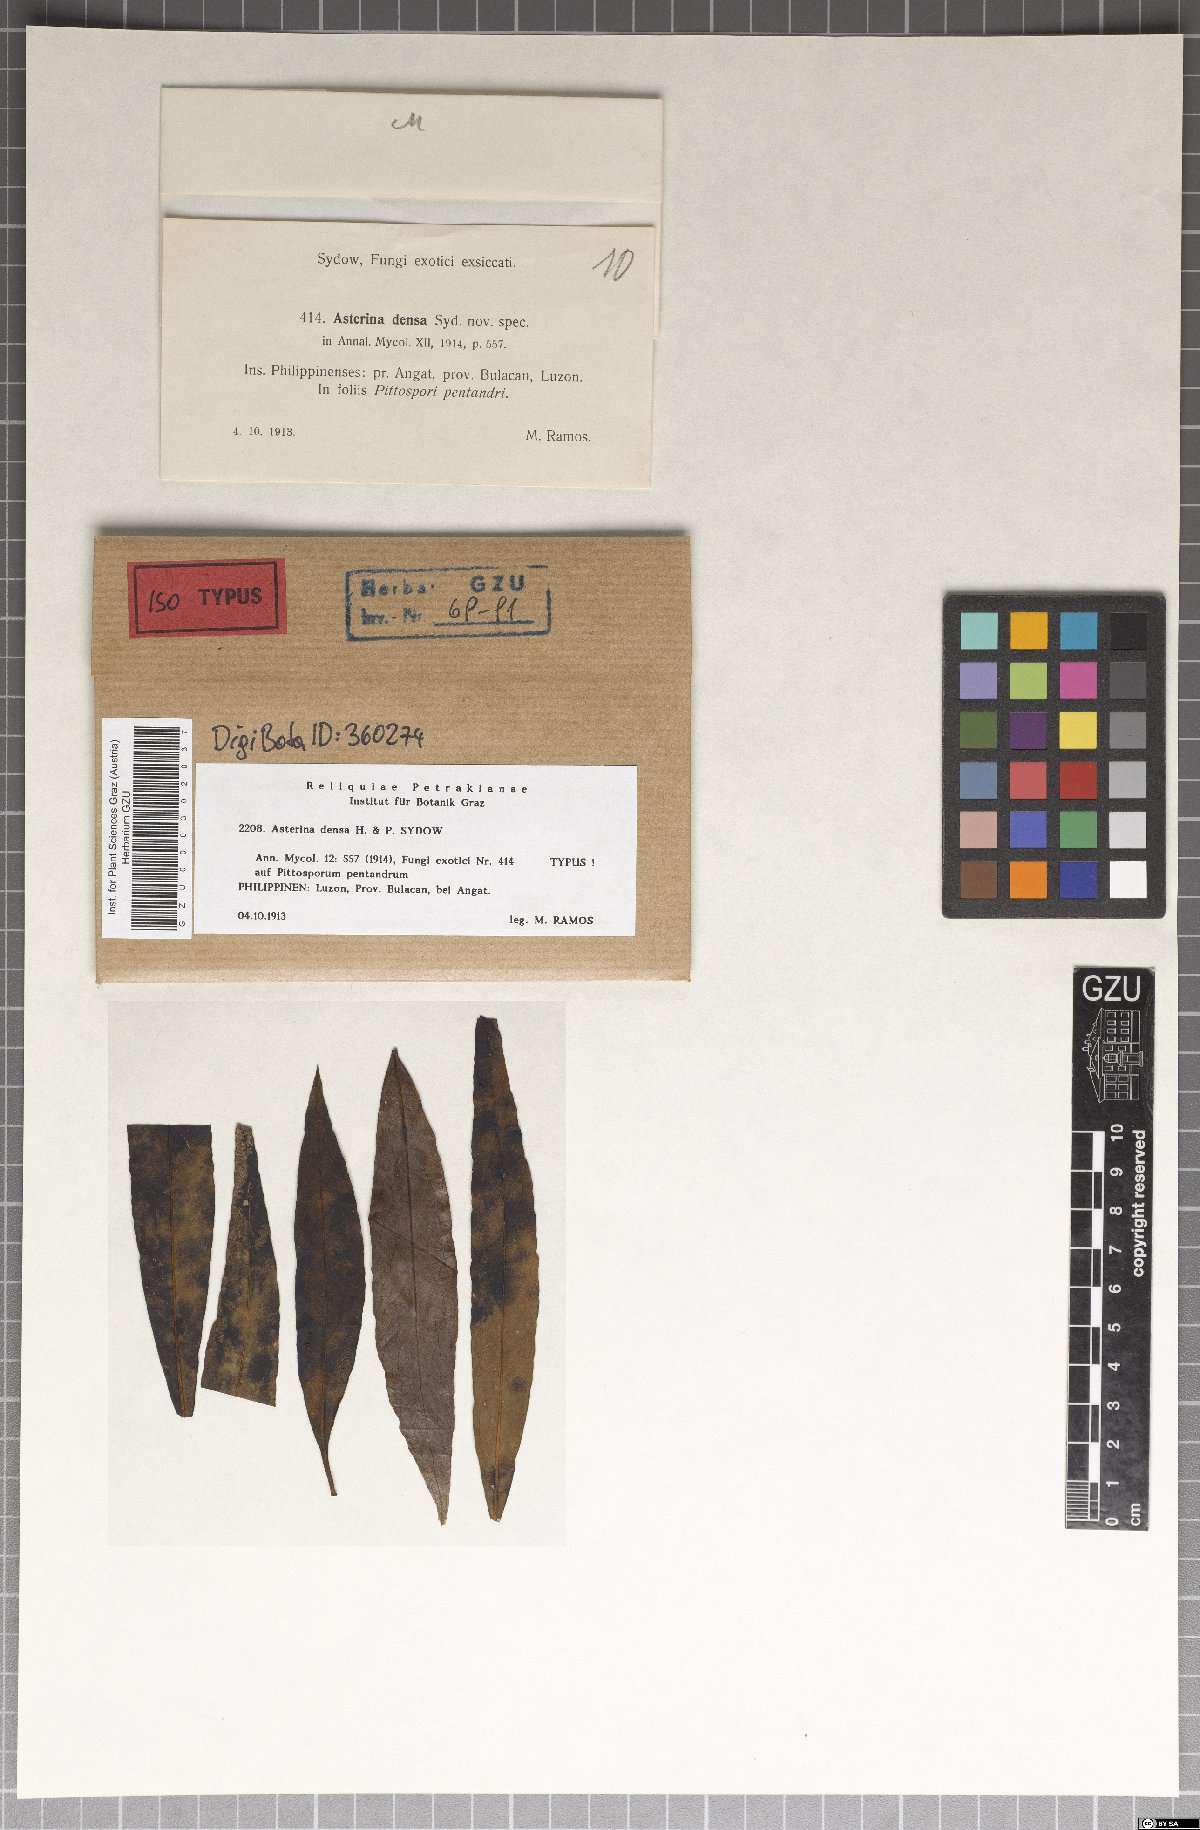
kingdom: Fungi
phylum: Ascomycota
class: Dothideomycetes
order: Asterinales
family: Asterinaceae
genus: Asterina
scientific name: Asterina densa
